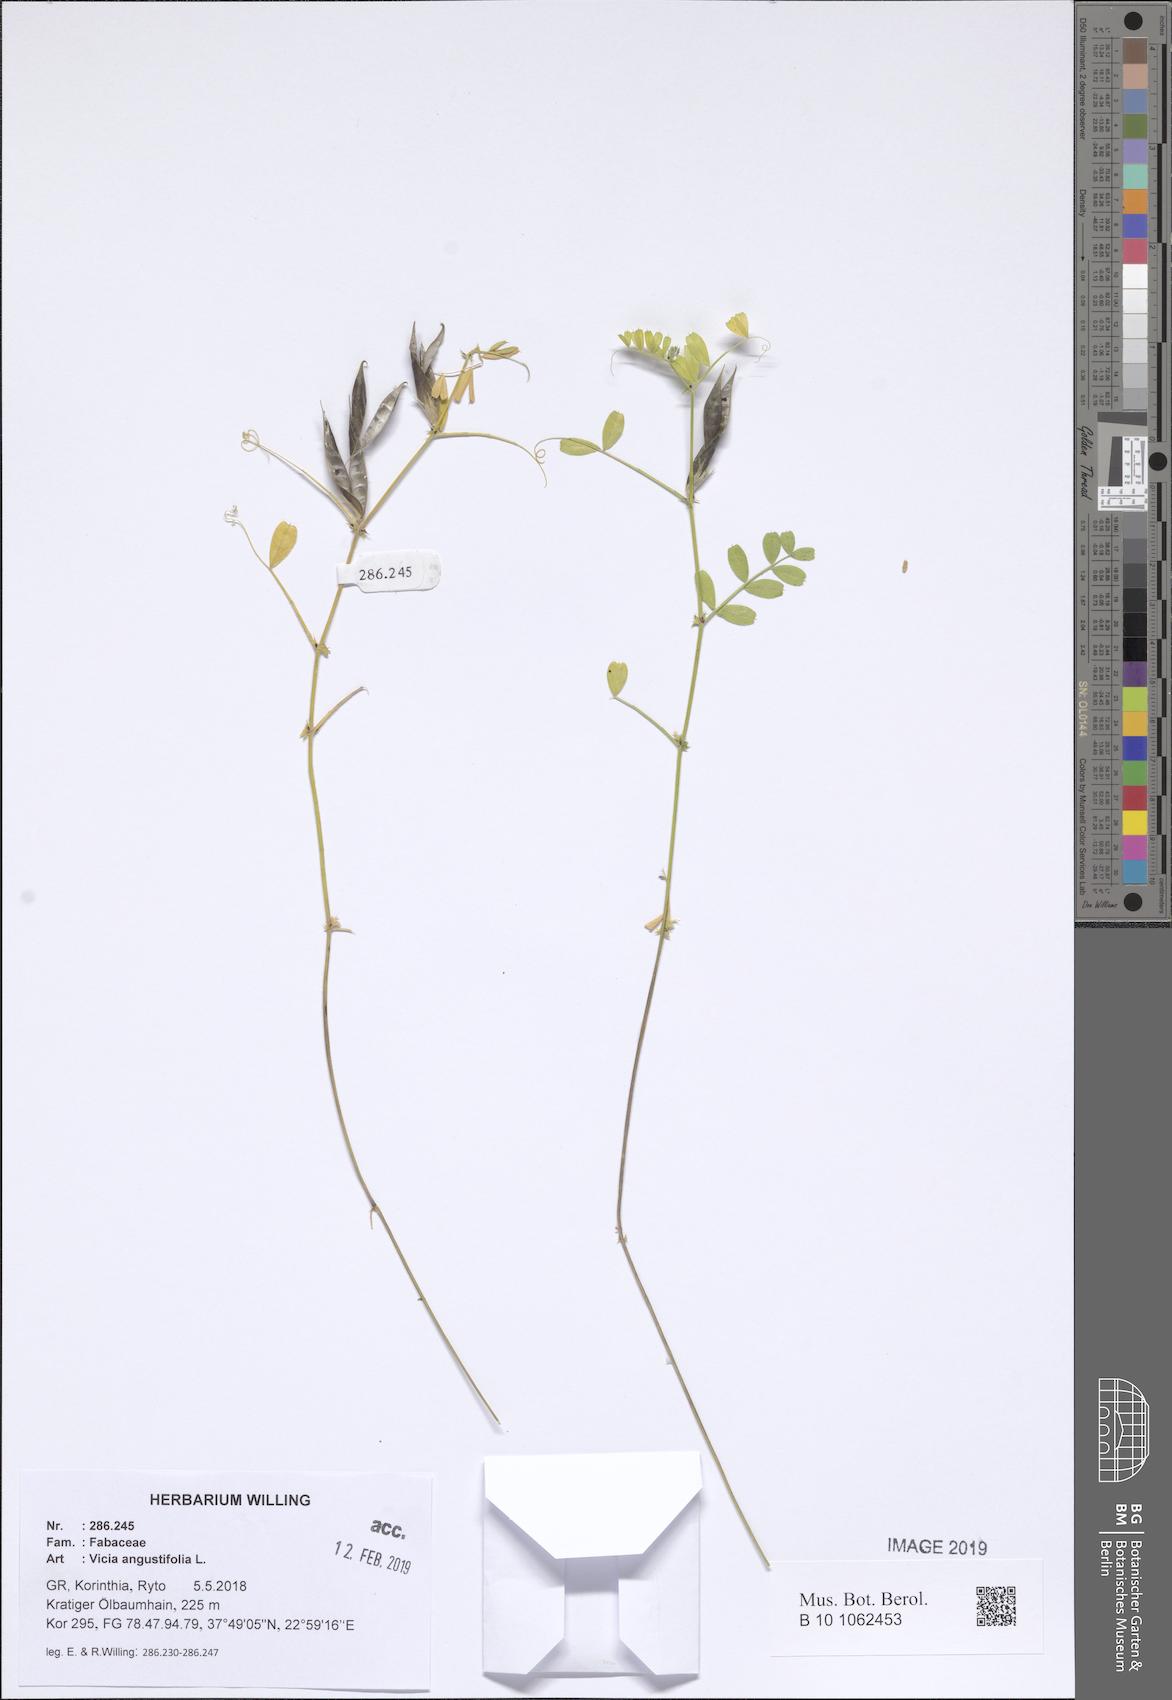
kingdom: Plantae
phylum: Tracheophyta
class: Magnoliopsida
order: Fabales
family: Fabaceae
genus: Vicia
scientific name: Vicia sativa
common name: Garden vetch
